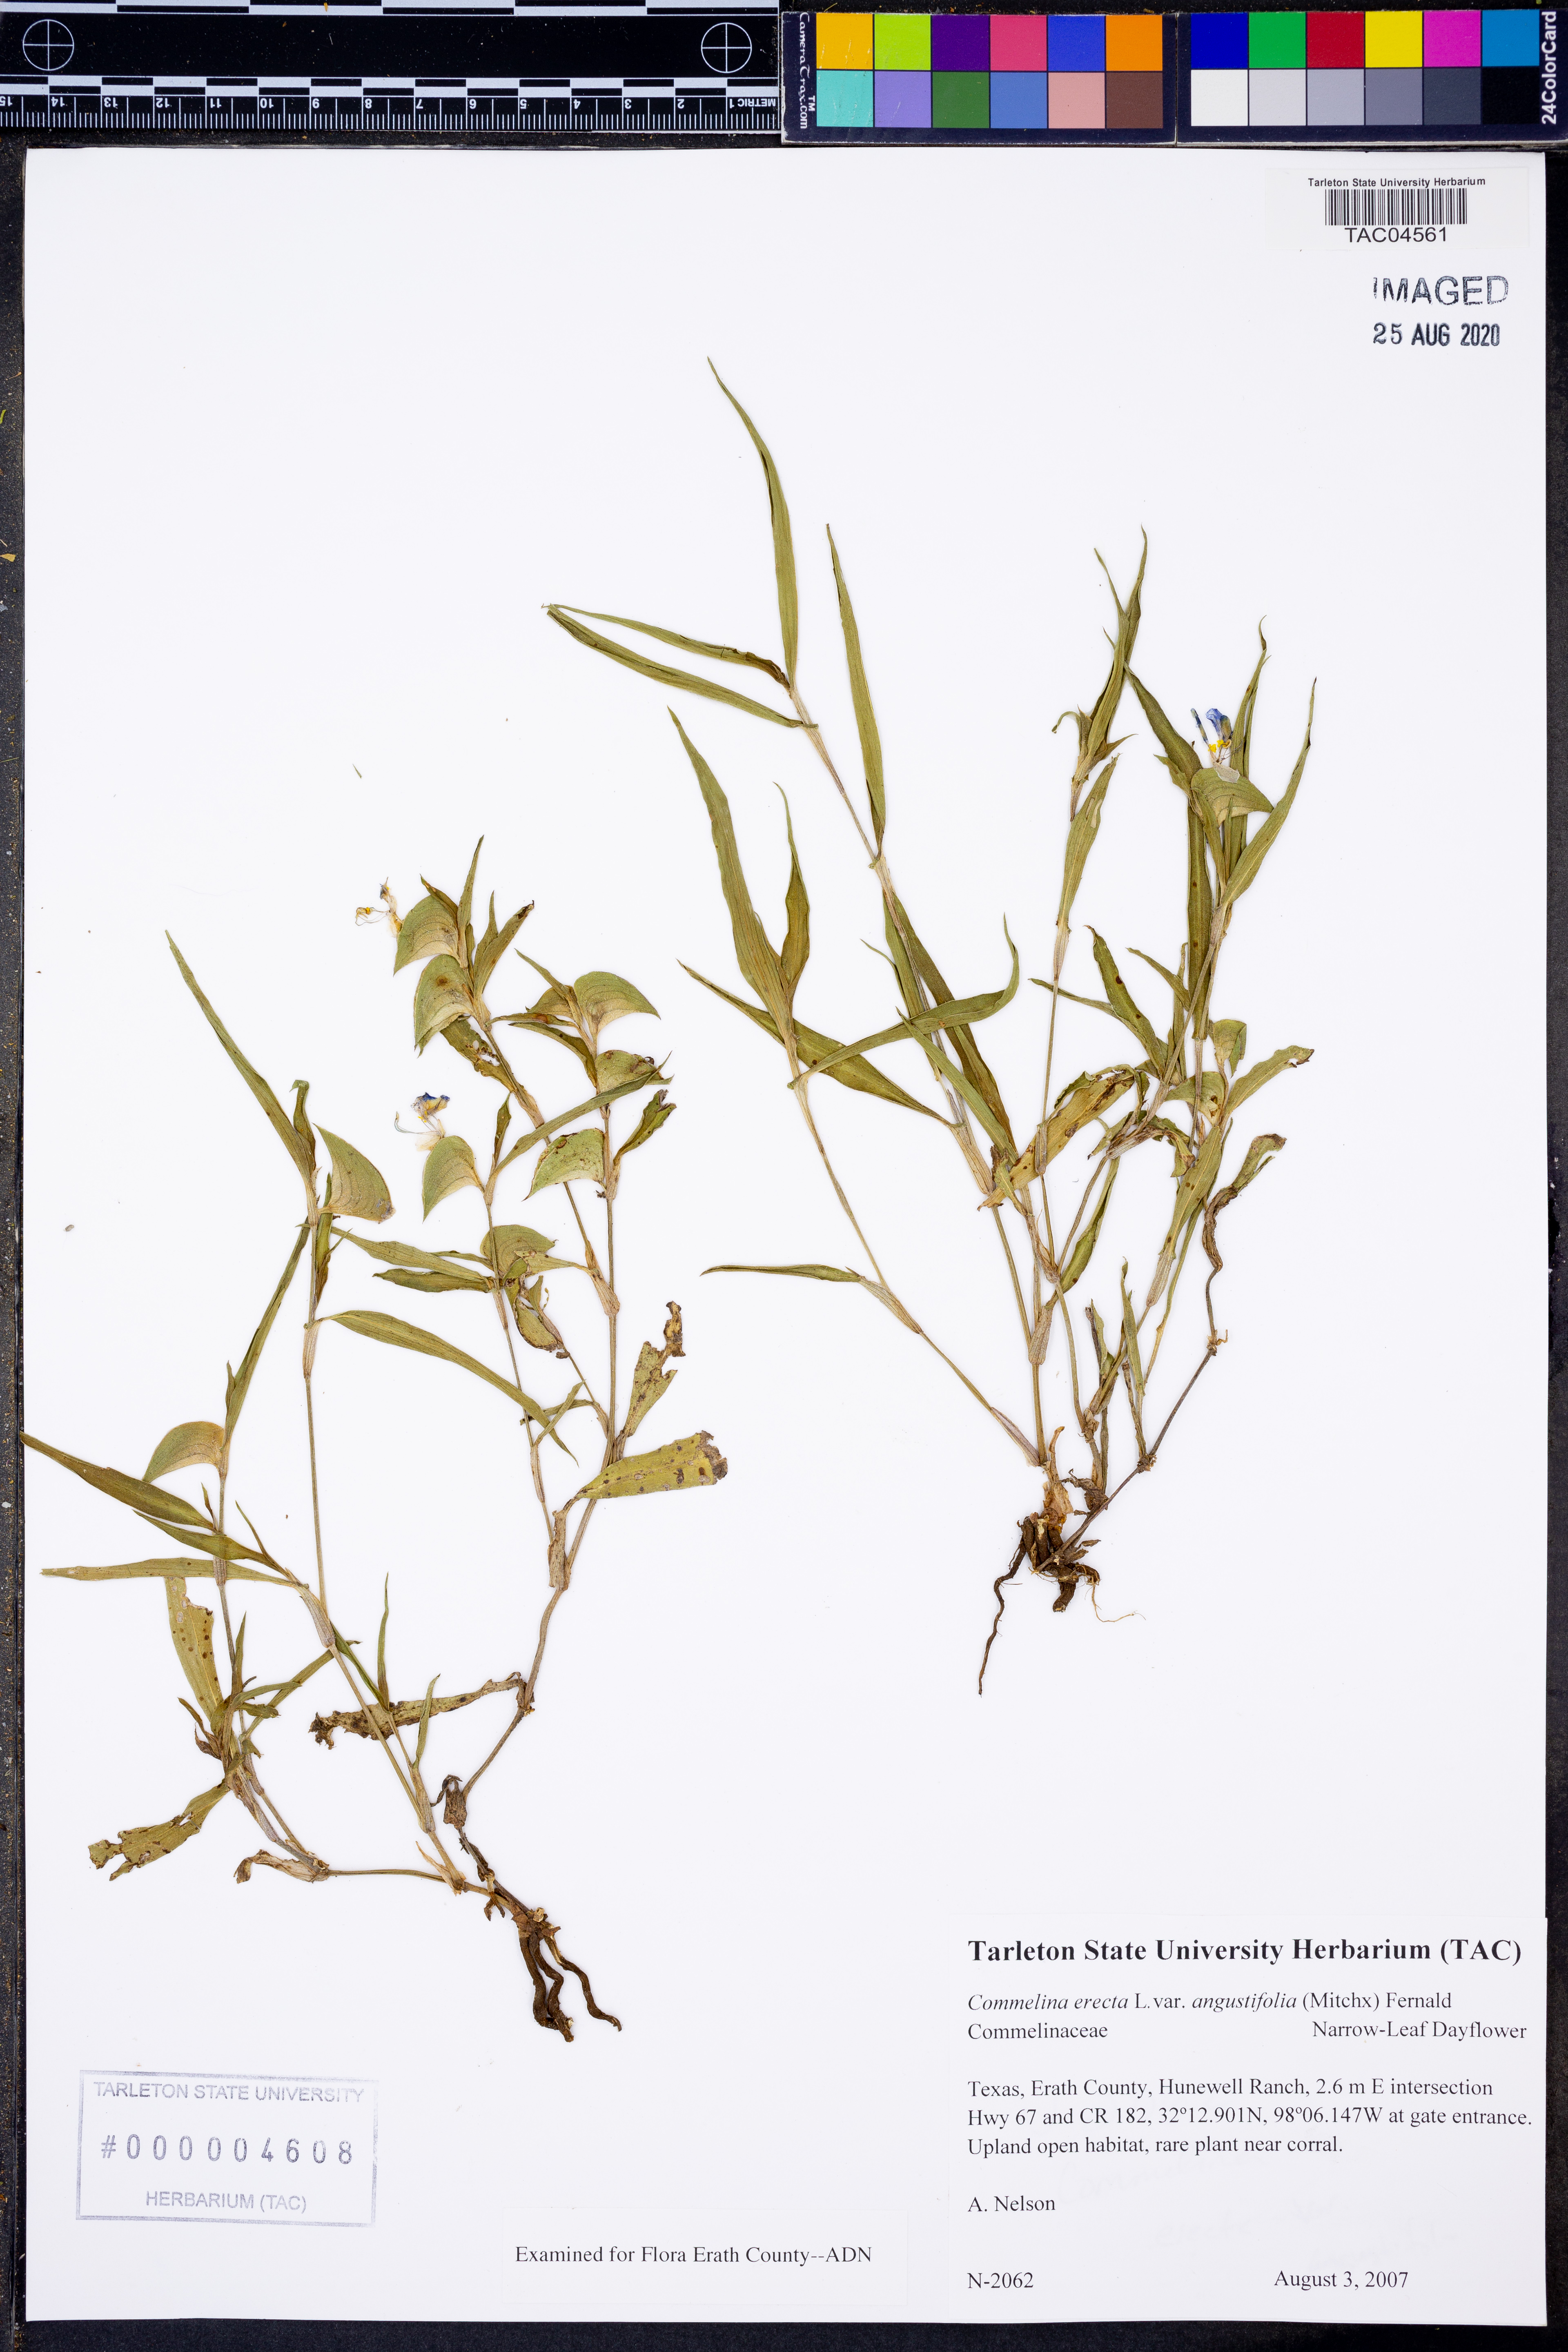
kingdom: Plantae
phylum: Tracheophyta
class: Liliopsida
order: Commelinales
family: Commelinaceae
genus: Commelina
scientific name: Commelina erecta
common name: Blousel blommetjie
